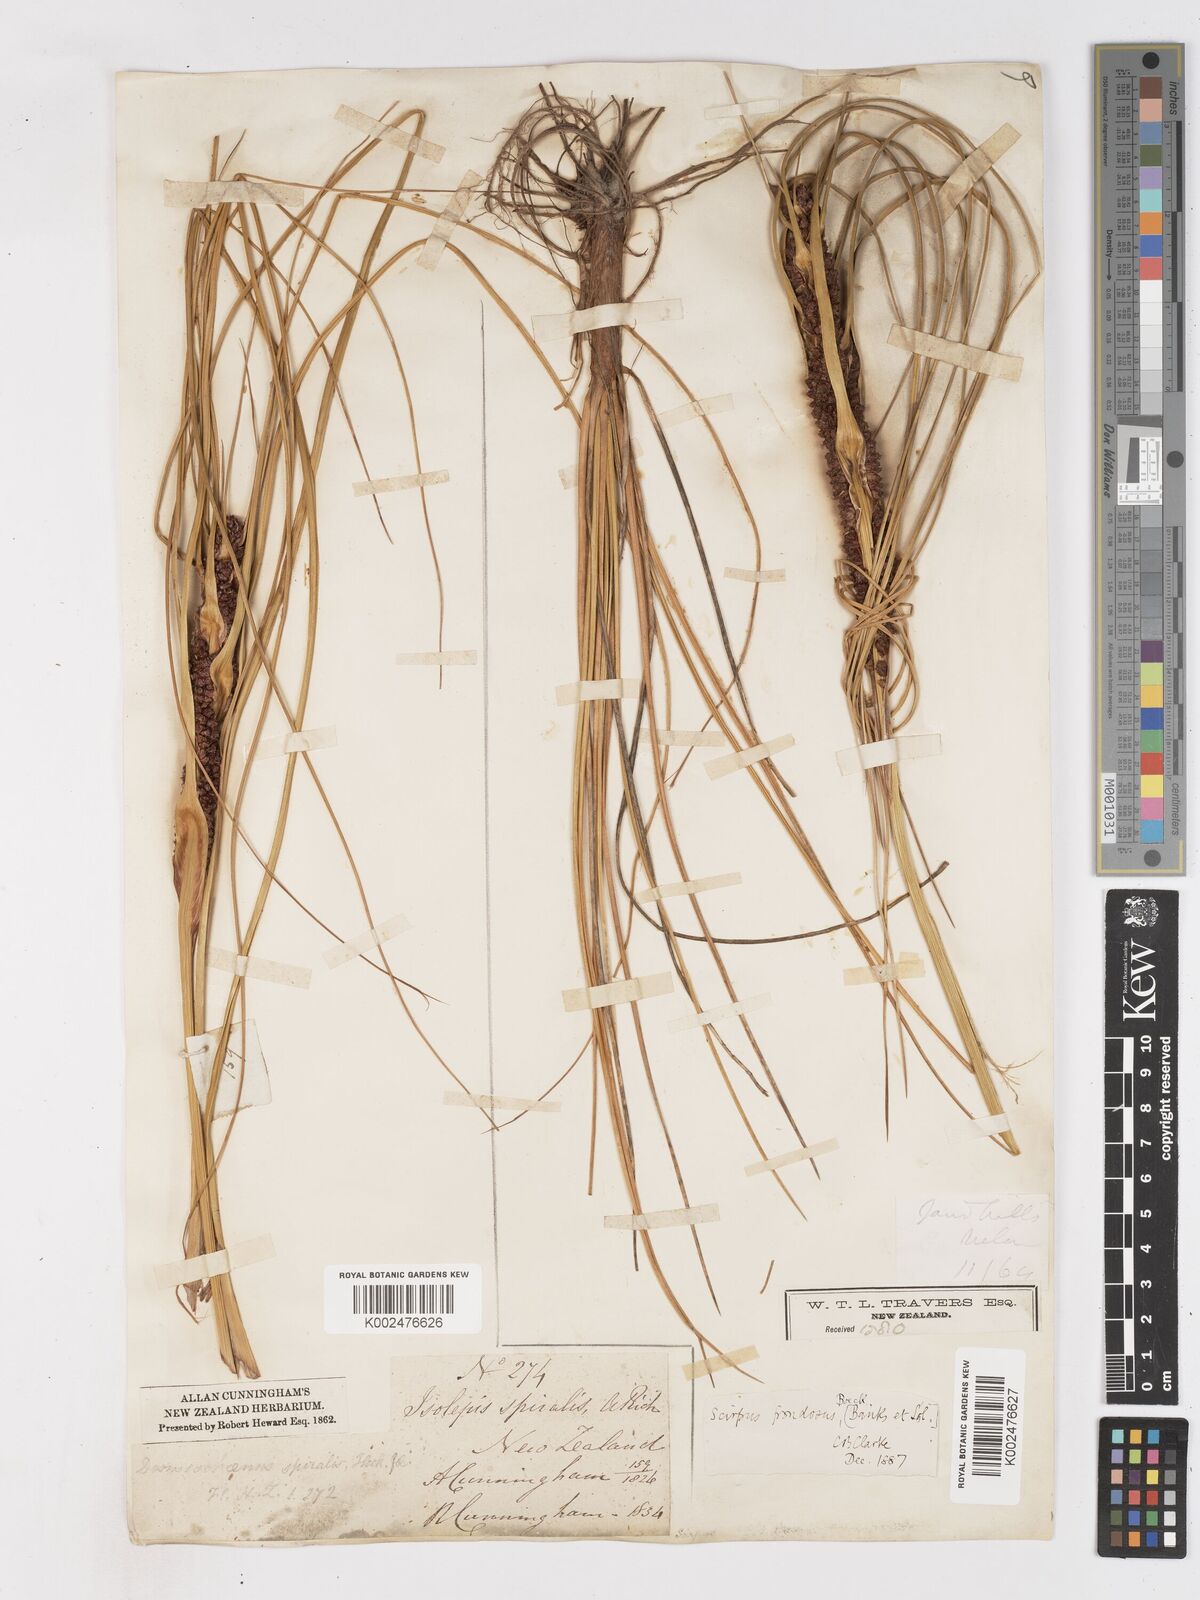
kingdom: Plantae
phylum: Tracheophyta
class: Liliopsida
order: Poales
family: Cyperaceae
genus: Ficinia
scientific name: Ficinia
